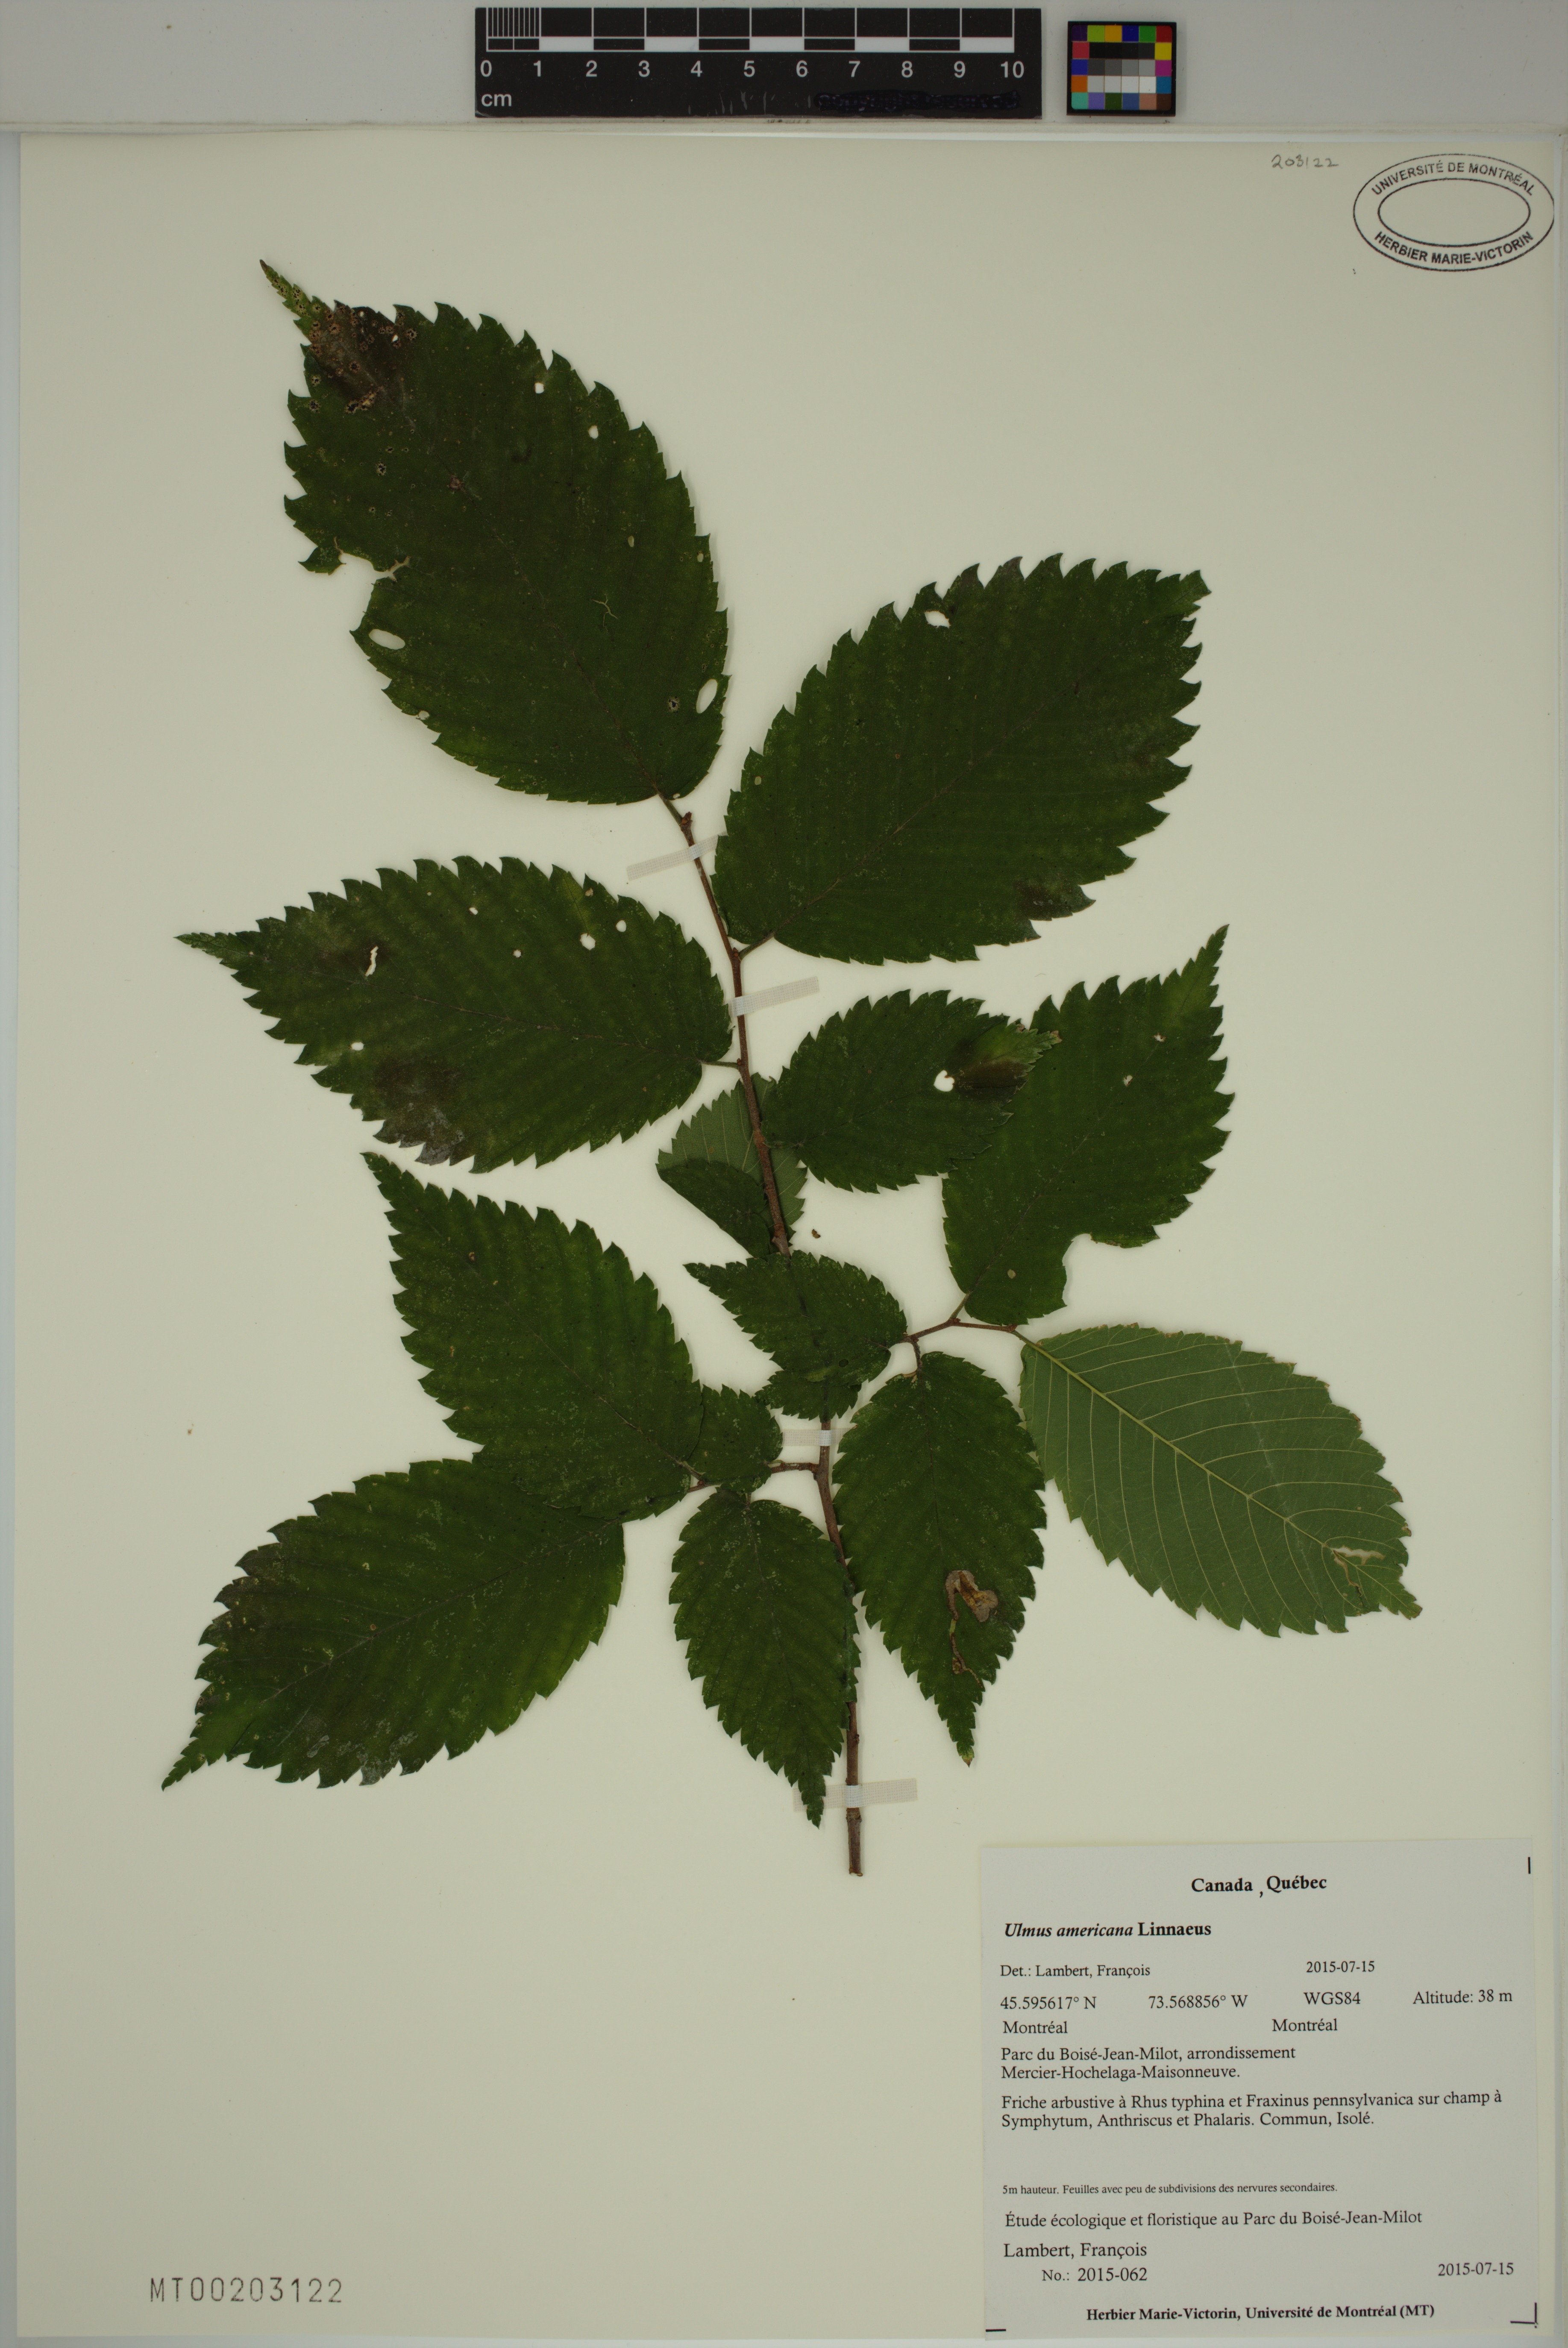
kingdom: Plantae
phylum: Tracheophyta
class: Magnoliopsida
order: Rosales
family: Ulmaceae
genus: Ulmus
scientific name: Ulmus americana
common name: American elm
